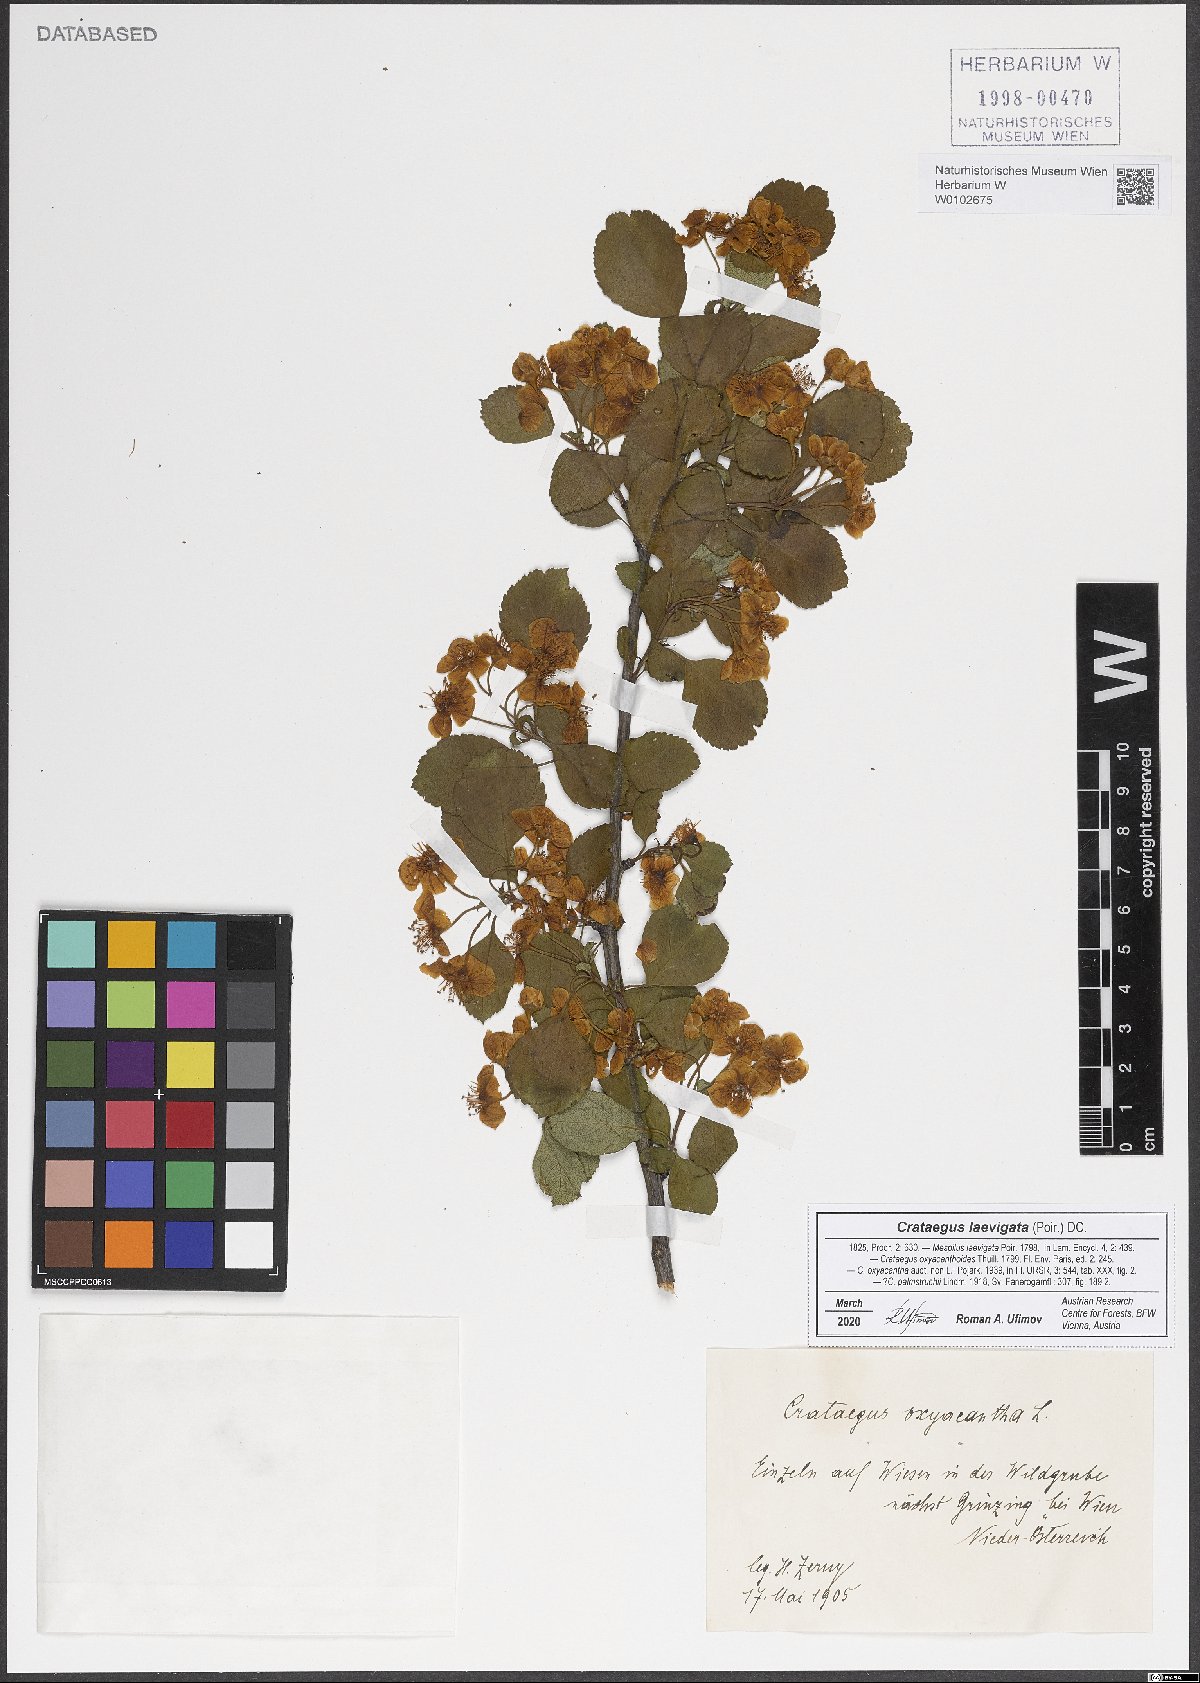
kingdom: Plantae
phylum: Tracheophyta
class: Magnoliopsida
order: Rosales
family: Rosaceae
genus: Crataegus
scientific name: Crataegus laevigata
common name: Midland hawthorn
